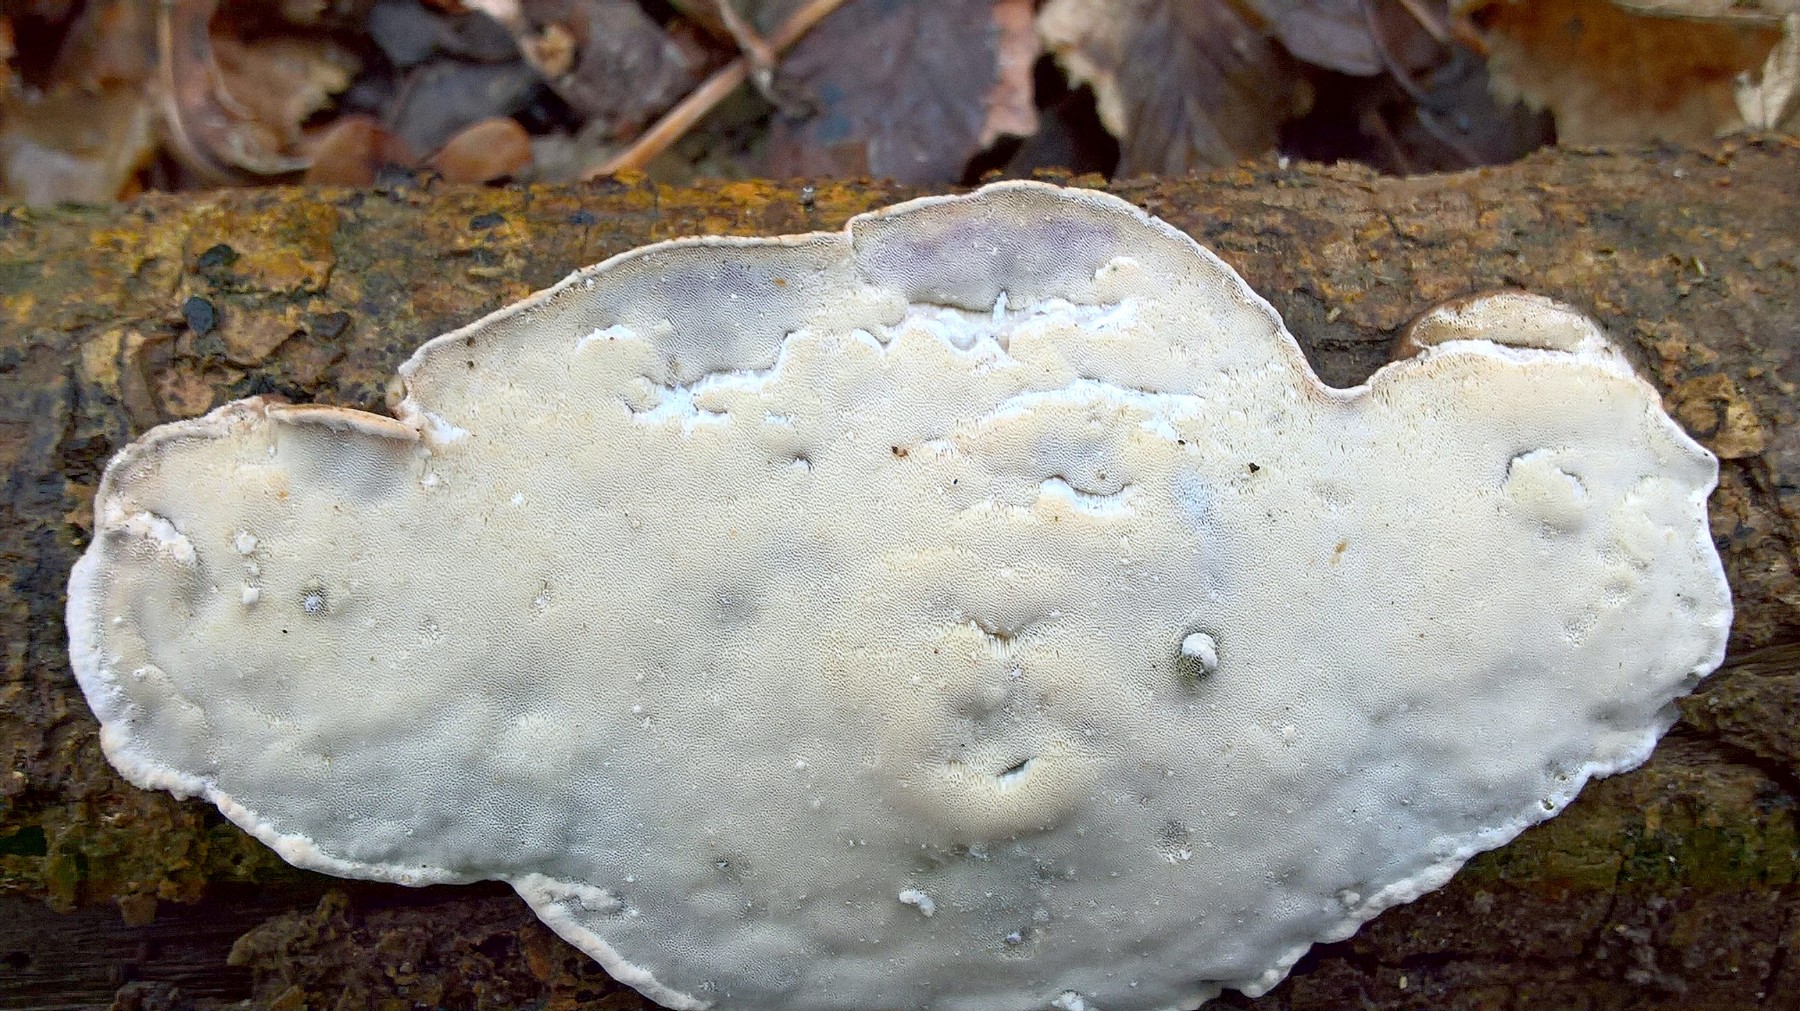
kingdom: Fungi
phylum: Basidiomycota
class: Agaricomycetes
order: Polyporales
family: Incrustoporiaceae
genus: Skeletocutis
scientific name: Skeletocutis nemoralis
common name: stor krystalporesvamp
